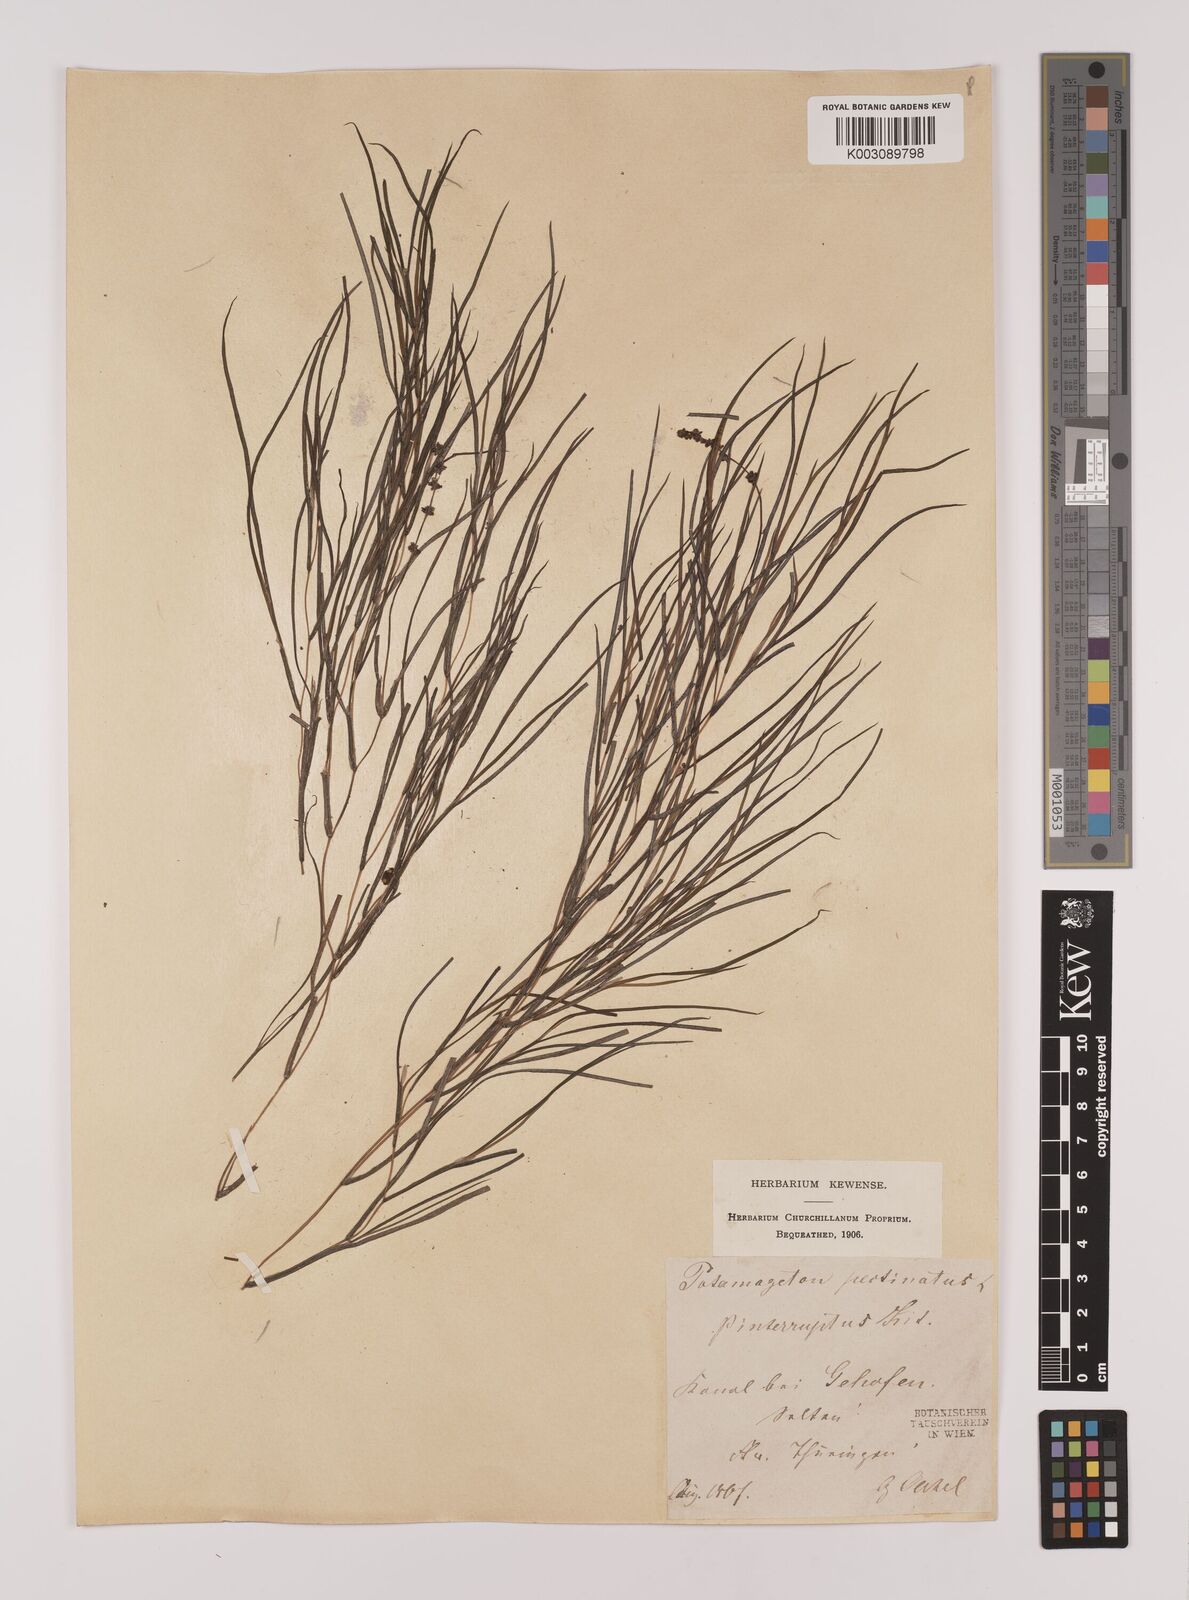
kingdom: Plantae
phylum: Tracheophyta
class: Liliopsida
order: Alismatales
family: Potamogetonaceae
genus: Stuckenia
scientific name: Stuckenia pectinata
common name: Sago pondweed
